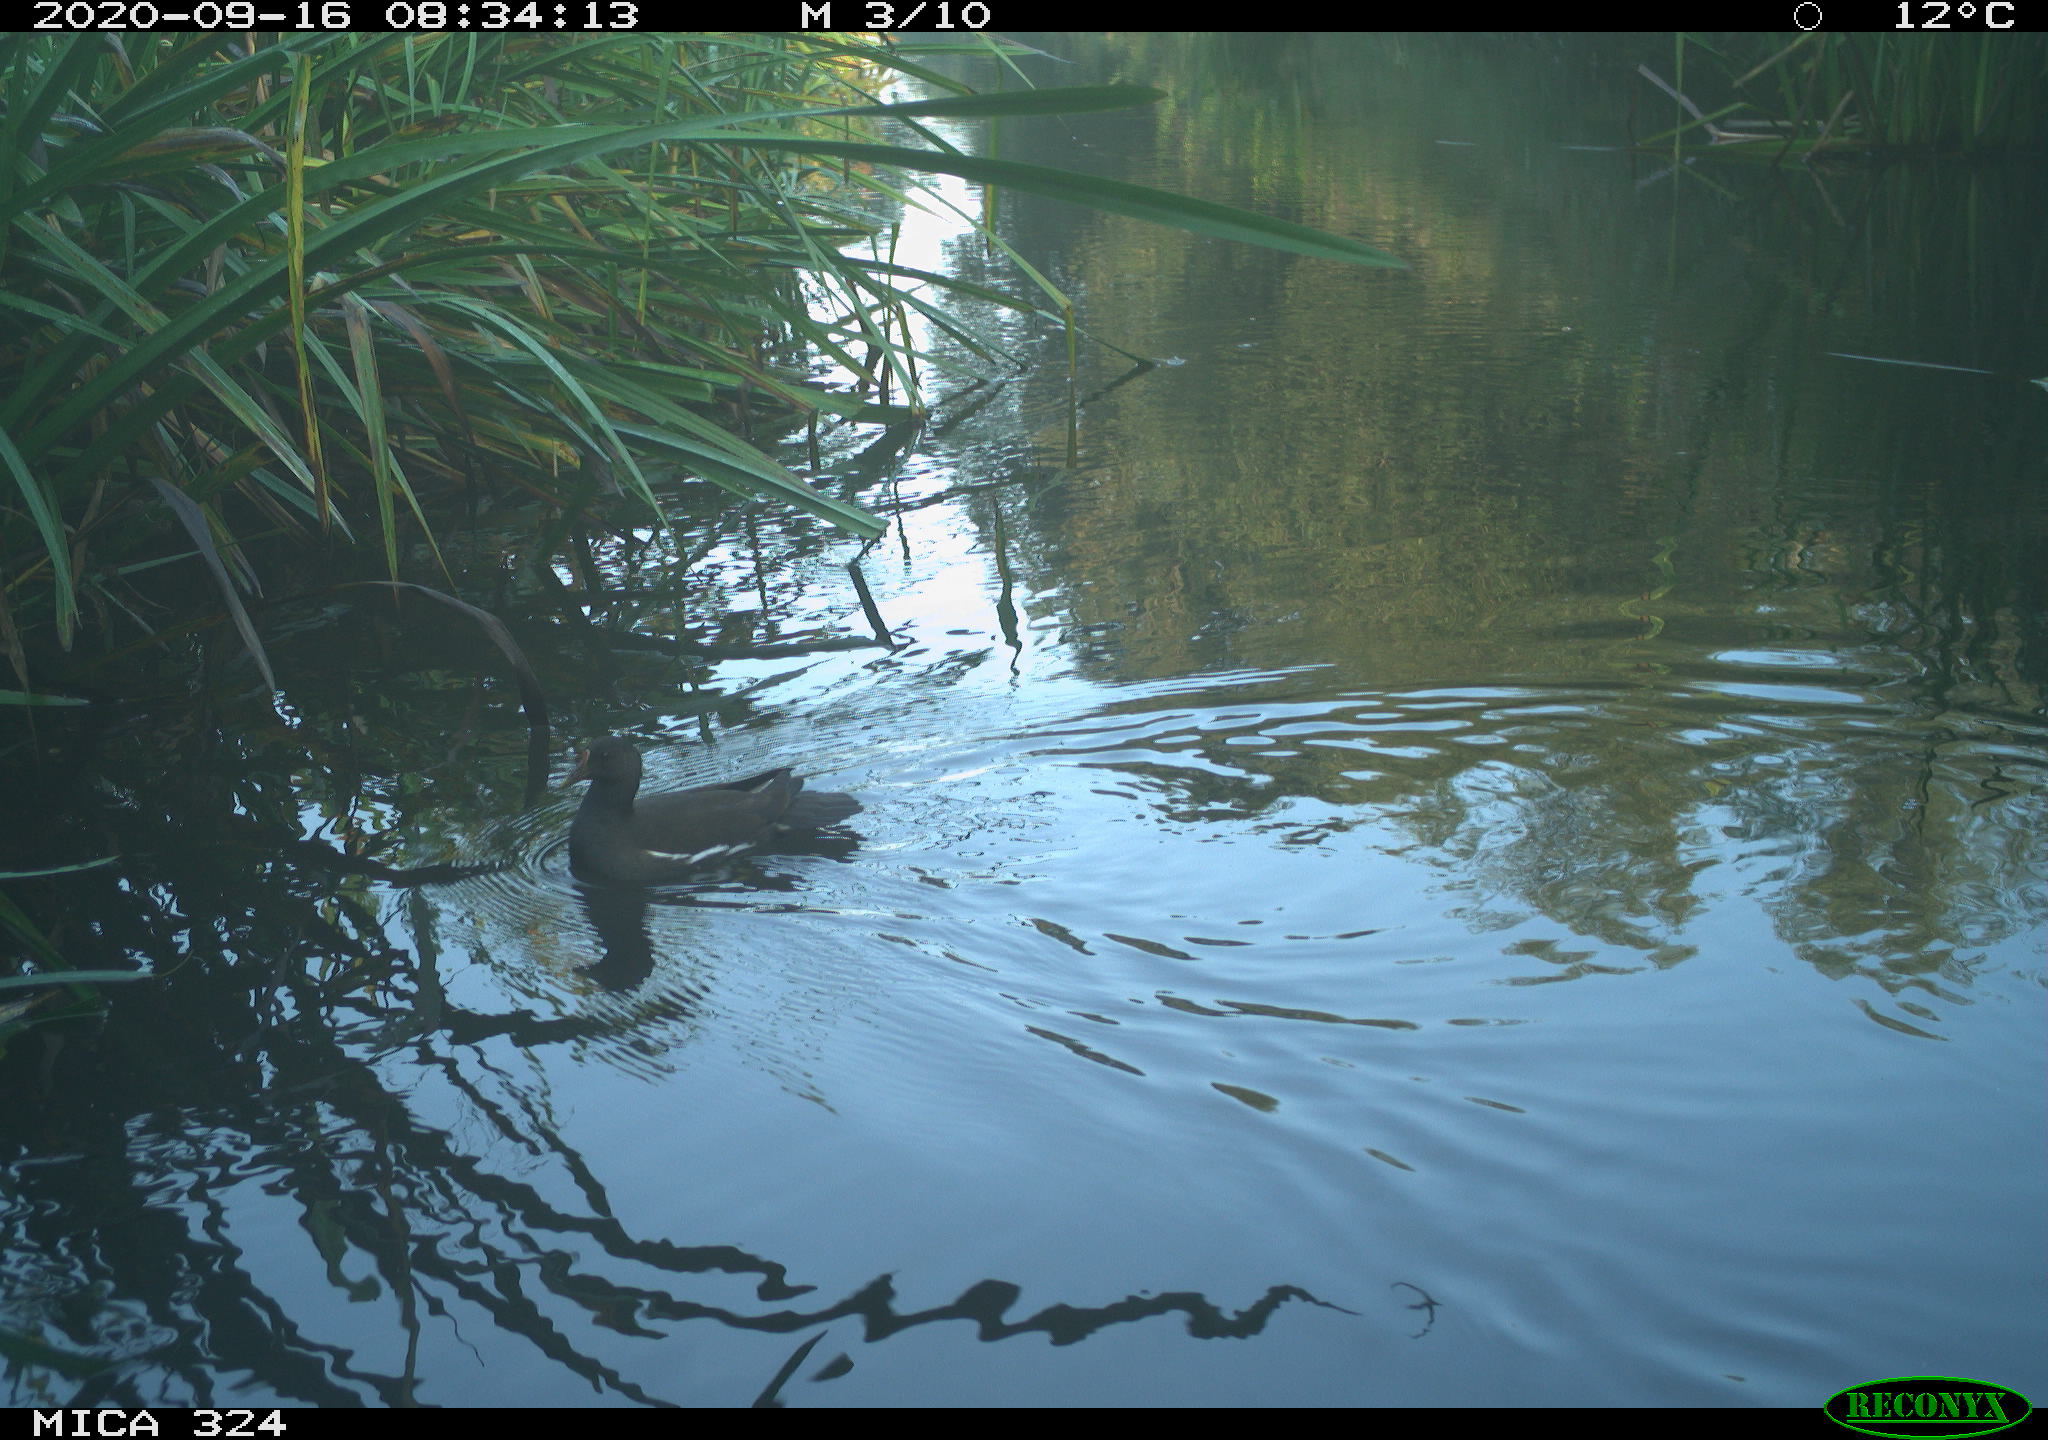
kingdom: Animalia
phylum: Chordata
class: Aves
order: Gruiformes
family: Rallidae
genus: Gallinula
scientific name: Gallinula chloropus
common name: Common moorhen
